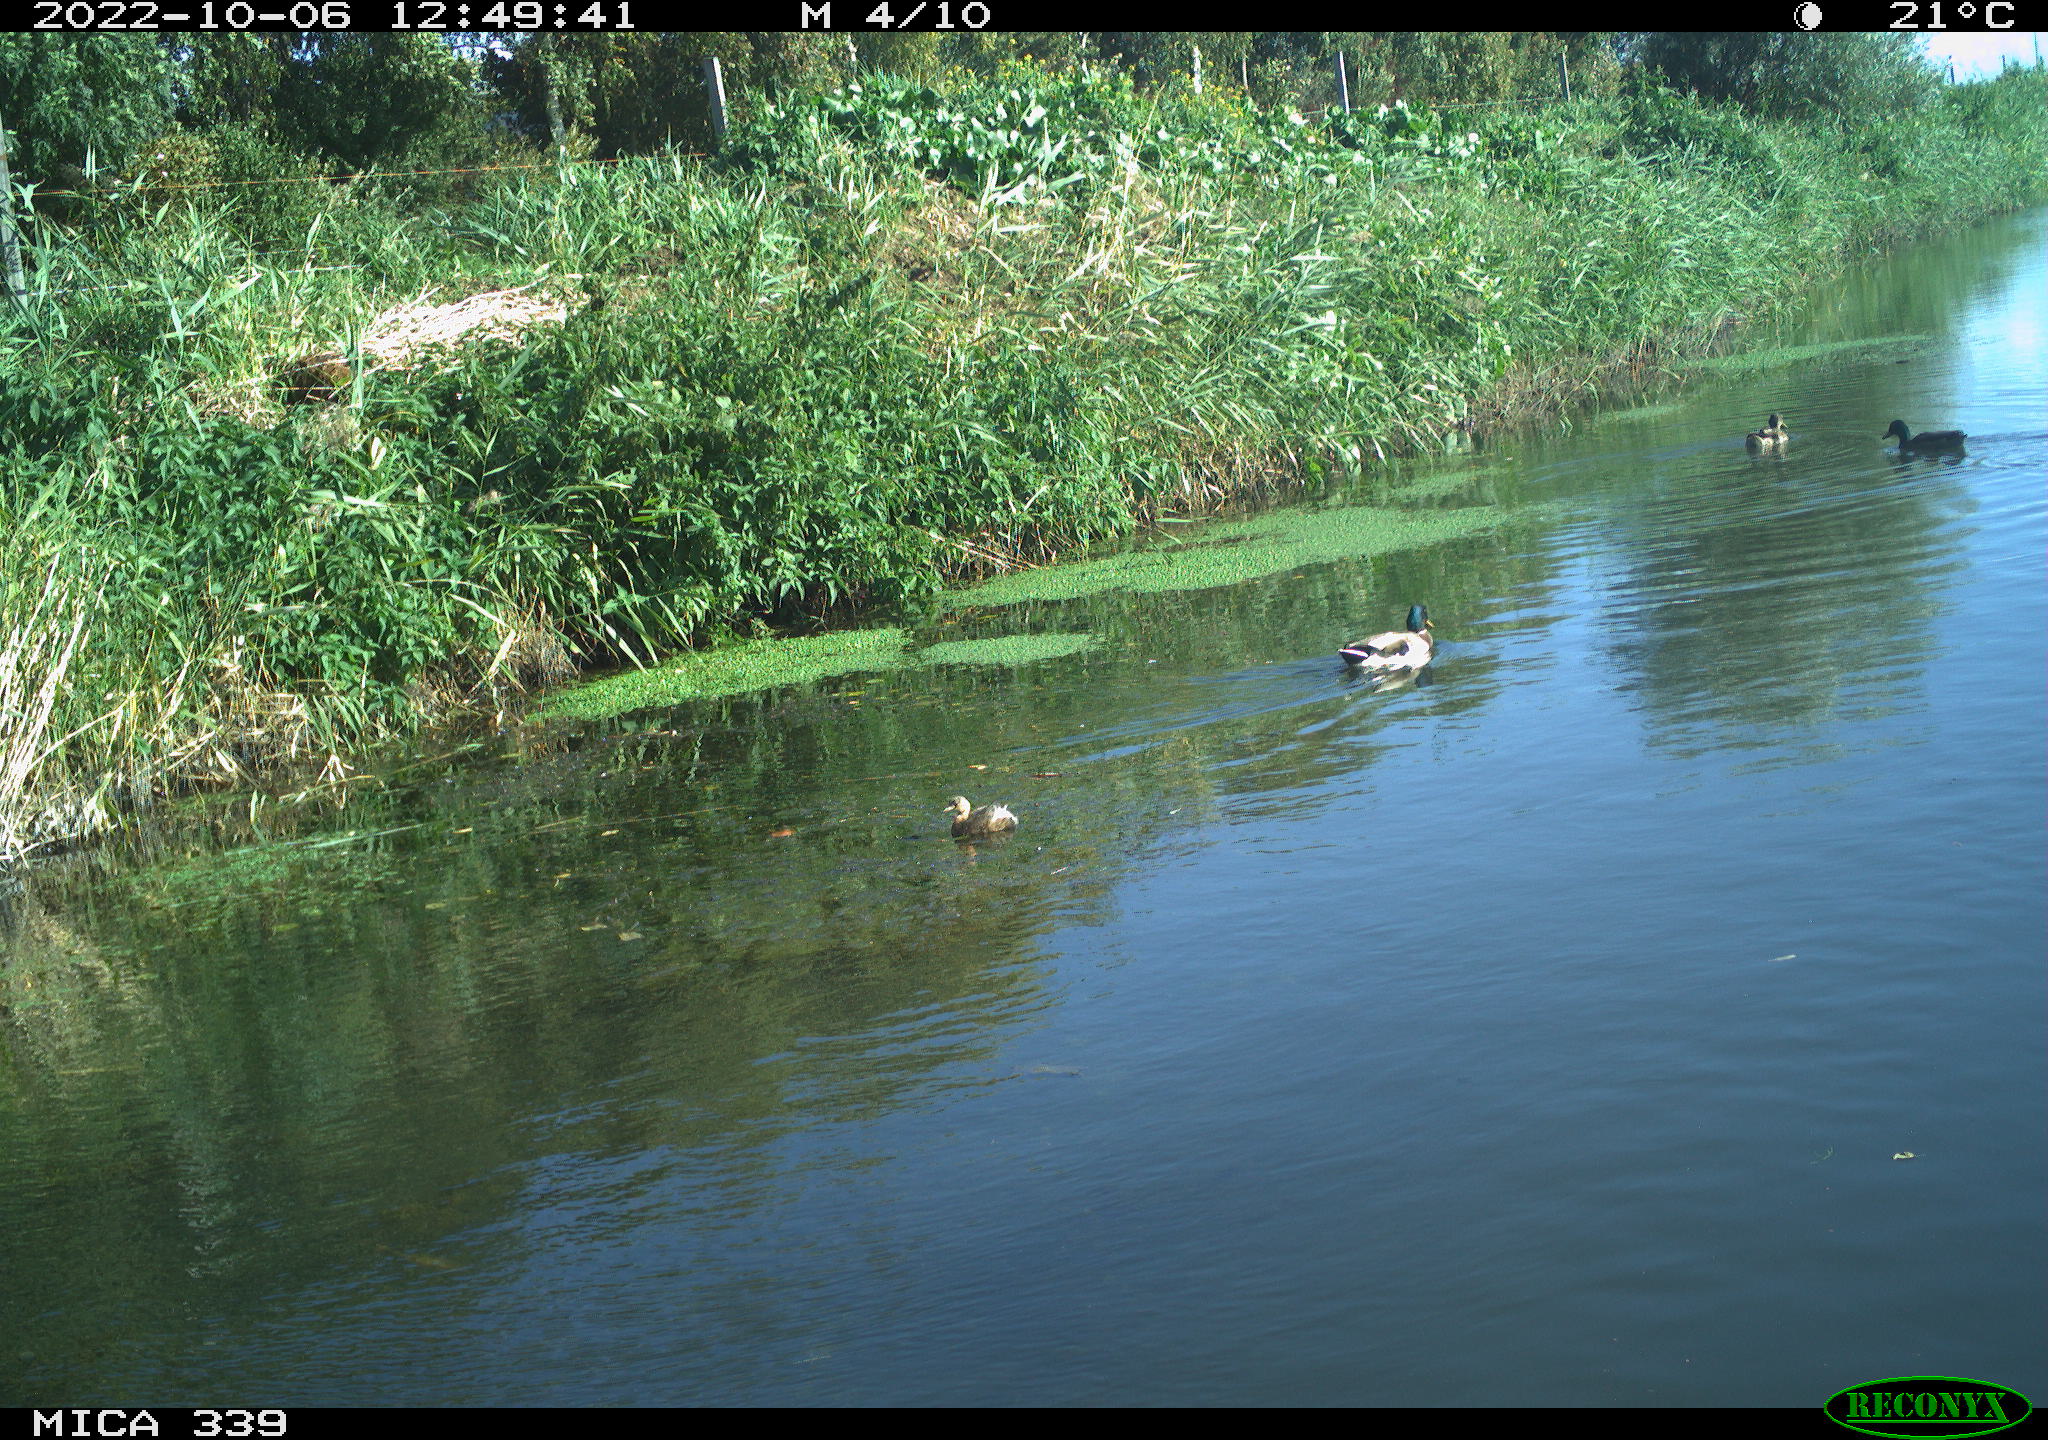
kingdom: Animalia
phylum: Chordata
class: Aves
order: Anseriformes
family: Anatidae
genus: Anas
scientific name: Anas platyrhynchos
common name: Mallard
